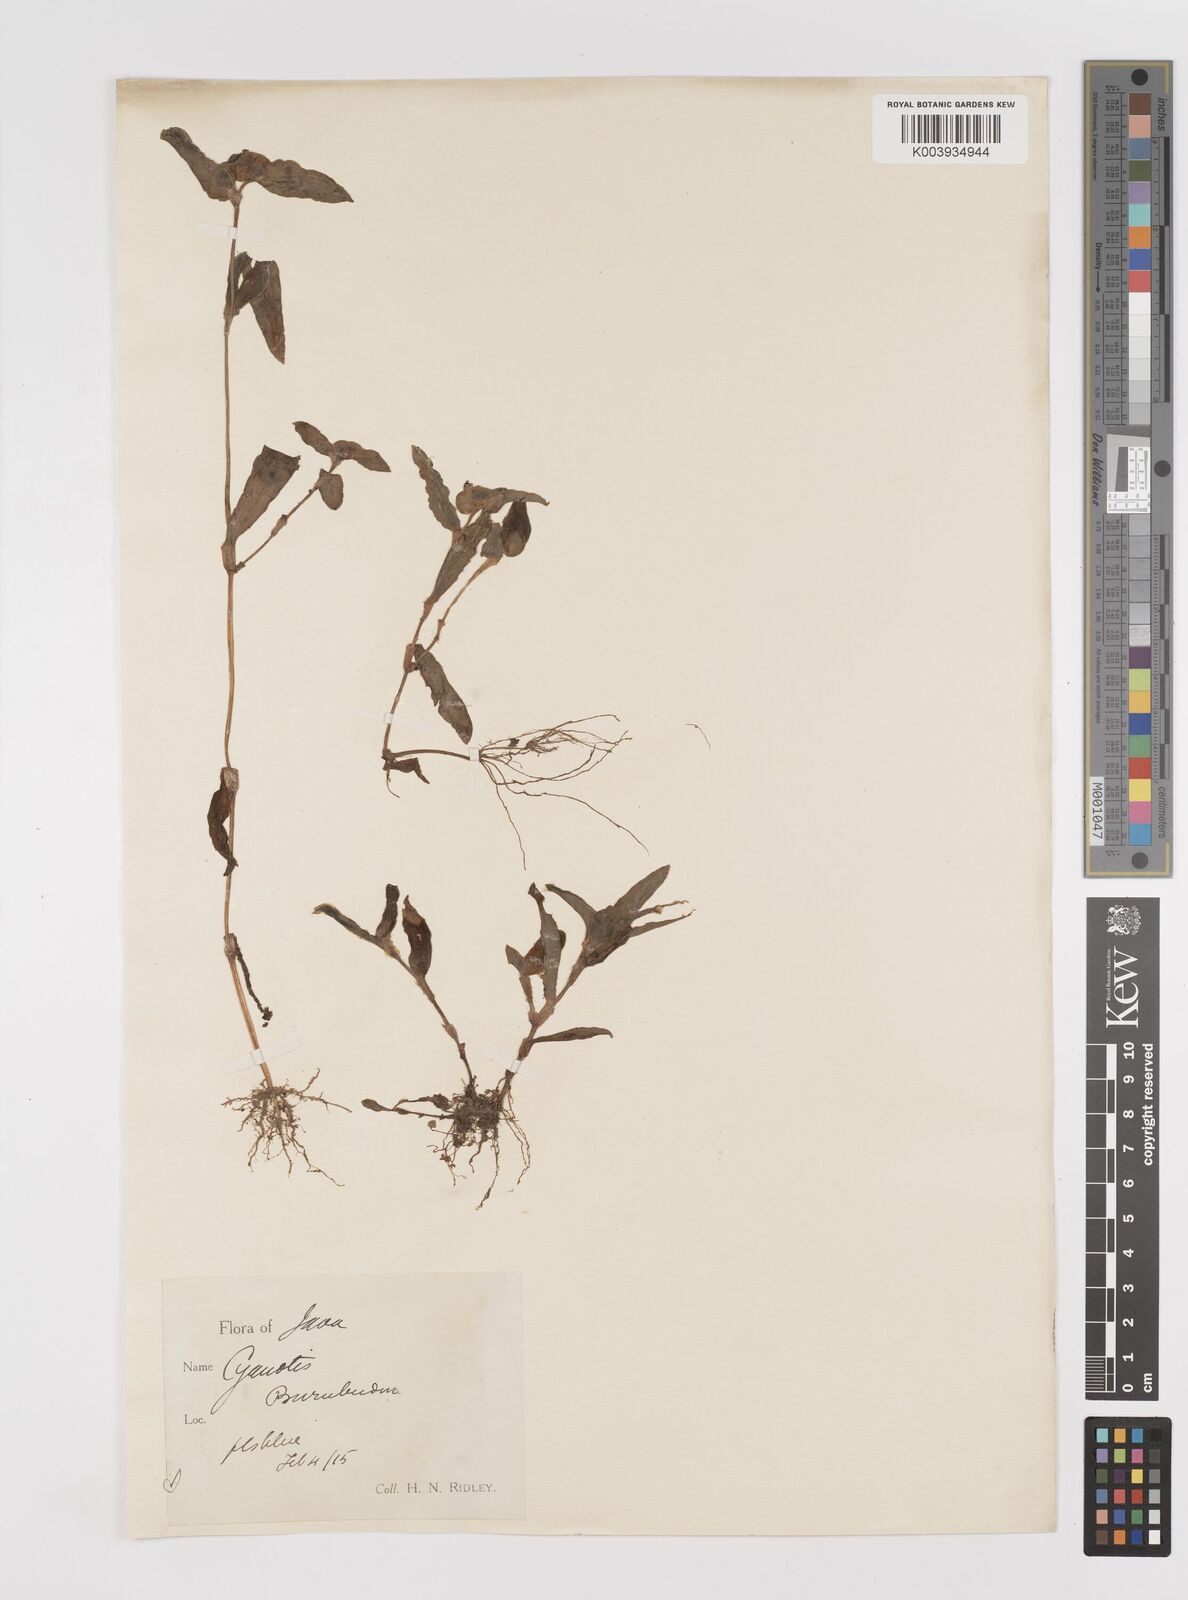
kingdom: Plantae
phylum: Tracheophyta
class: Liliopsida
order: Commelinales
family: Commelinaceae
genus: Cyanotis
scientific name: Cyanotis
